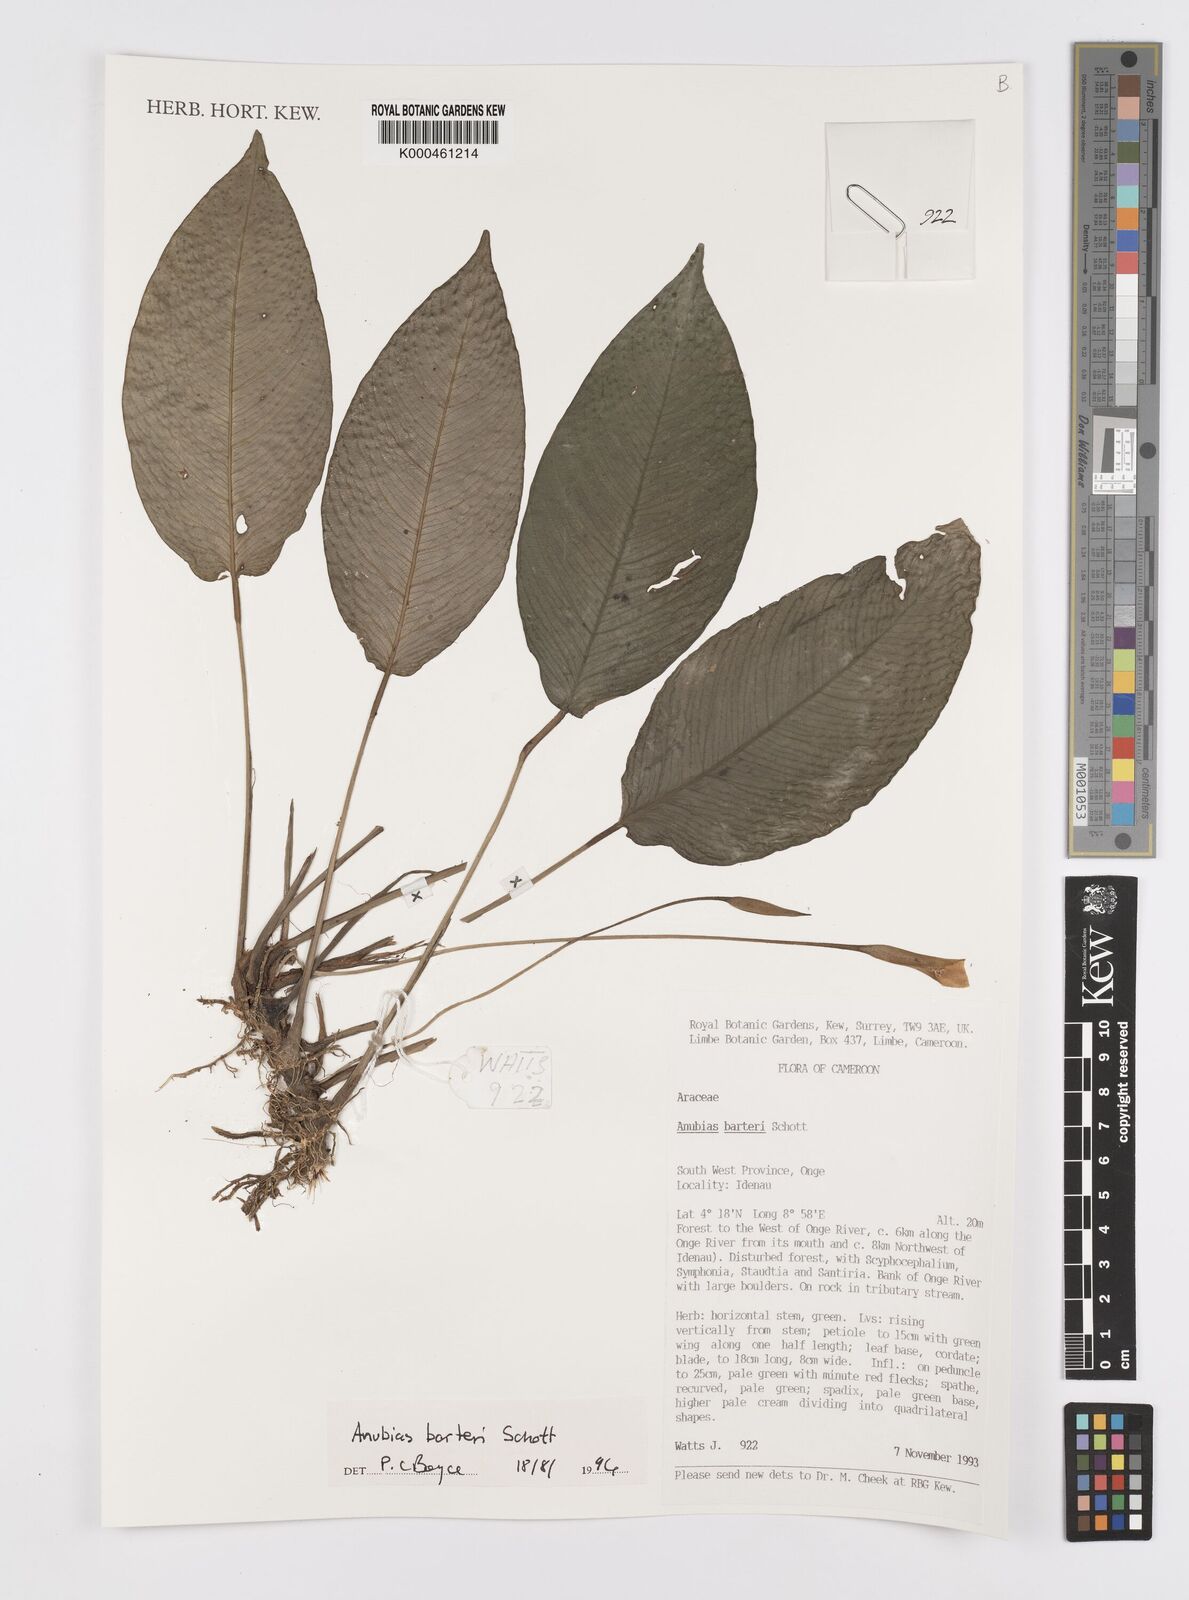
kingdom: Plantae
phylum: Tracheophyta
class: Liliopsida
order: Alismatales
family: Araceae
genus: Anubias
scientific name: Anubias barteri
